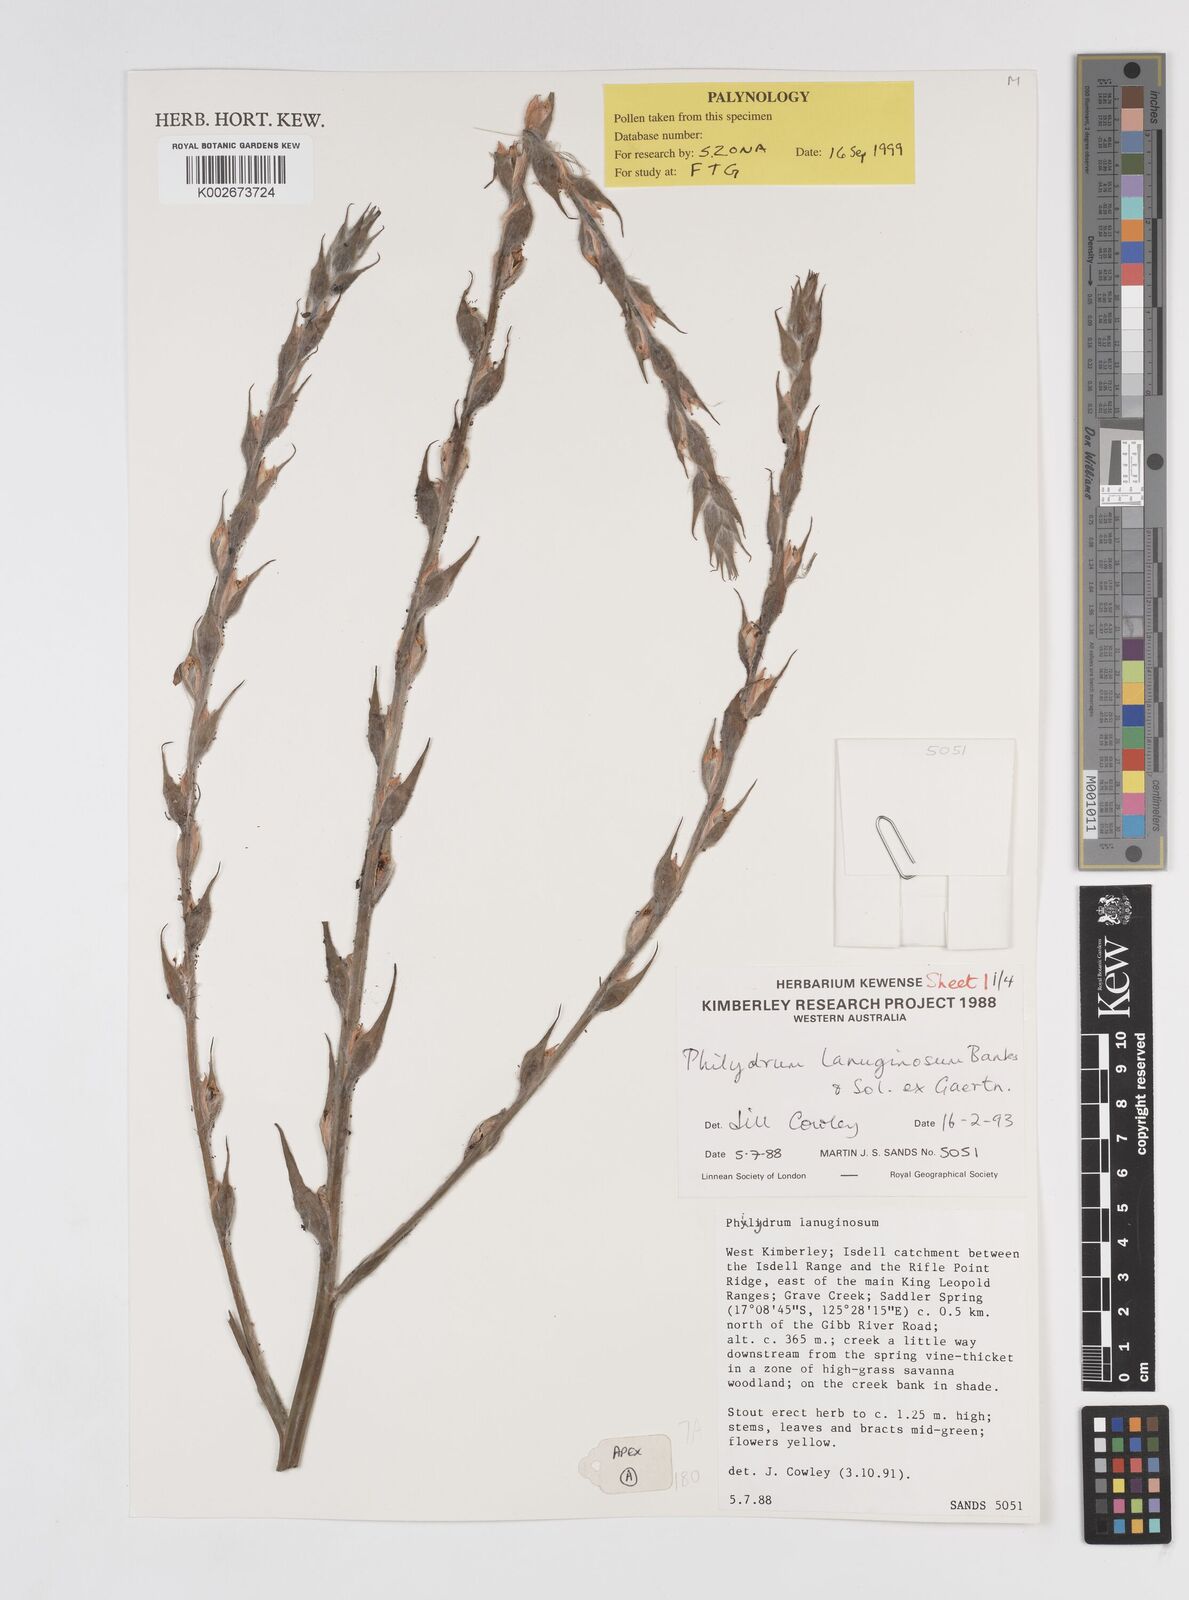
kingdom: Plantae
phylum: Tracheophyta
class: Liliopsida
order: Commelinales
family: Philydraceae
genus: Philydrum
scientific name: Philydrum lanuginosum
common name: Woolly frog's mouth
